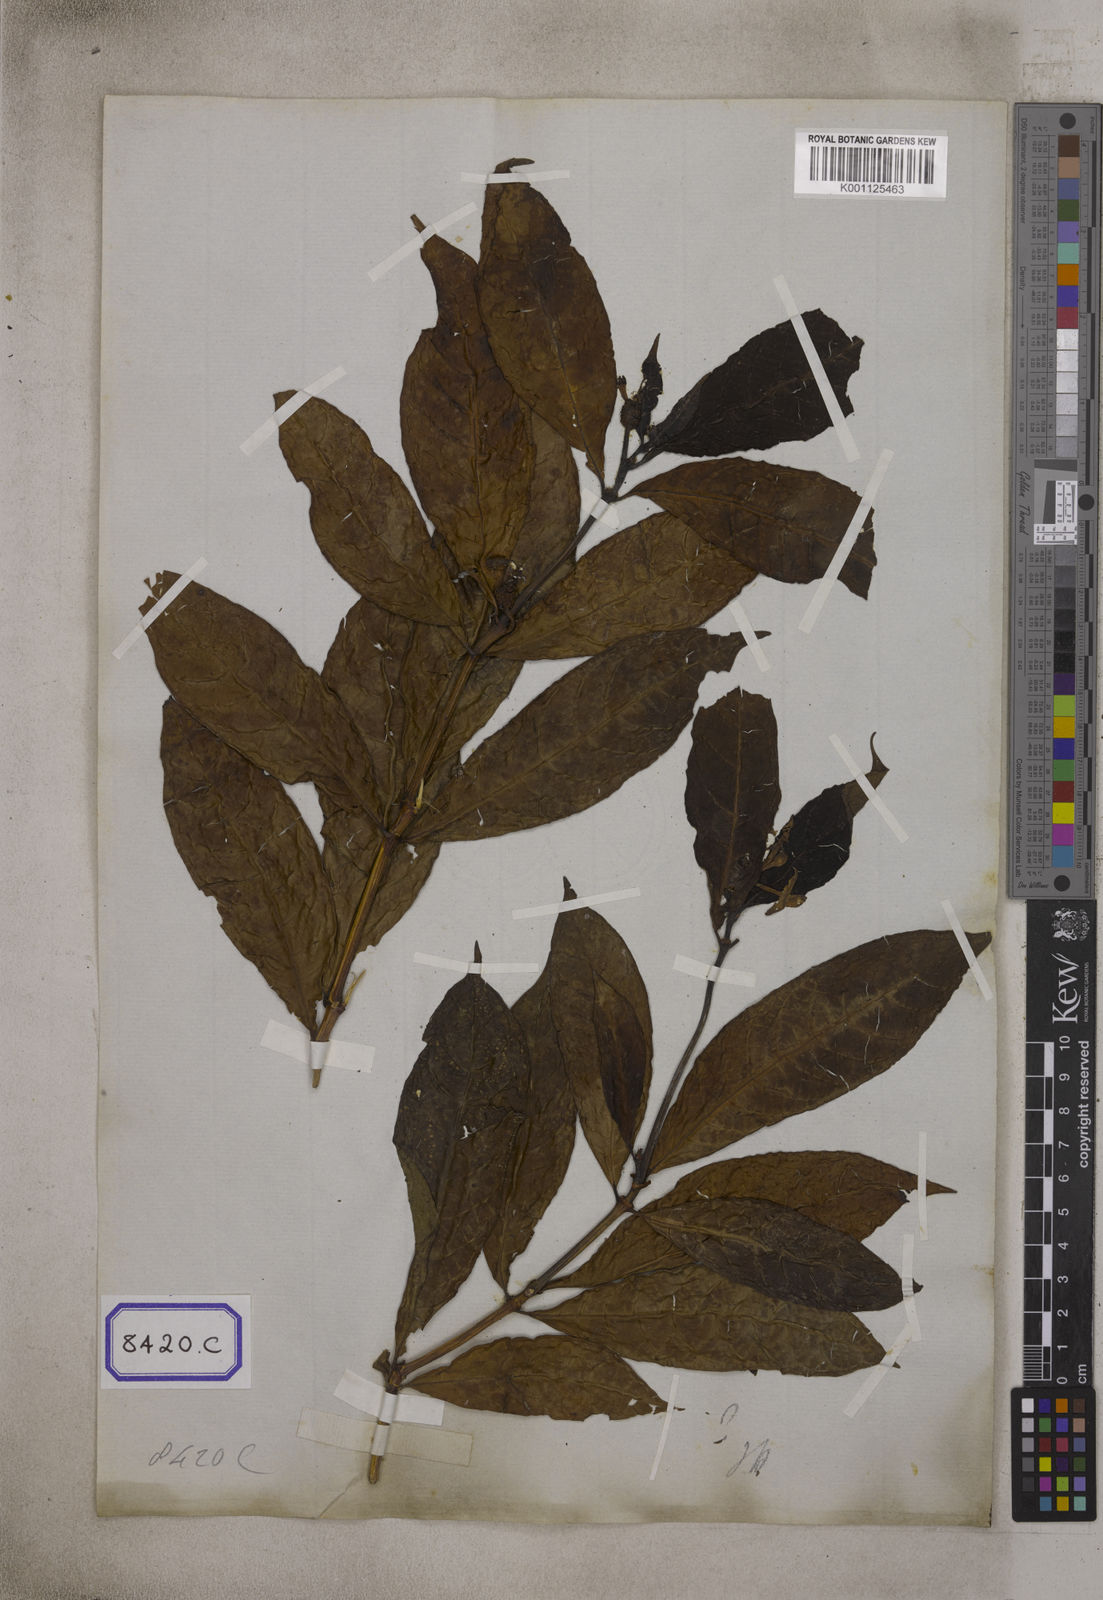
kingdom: Plantae
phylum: Tracheophyta
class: Magnoliopsida
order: Gentianales
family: Rubiaceae
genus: Morinda
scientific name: Morinda angustifolia
